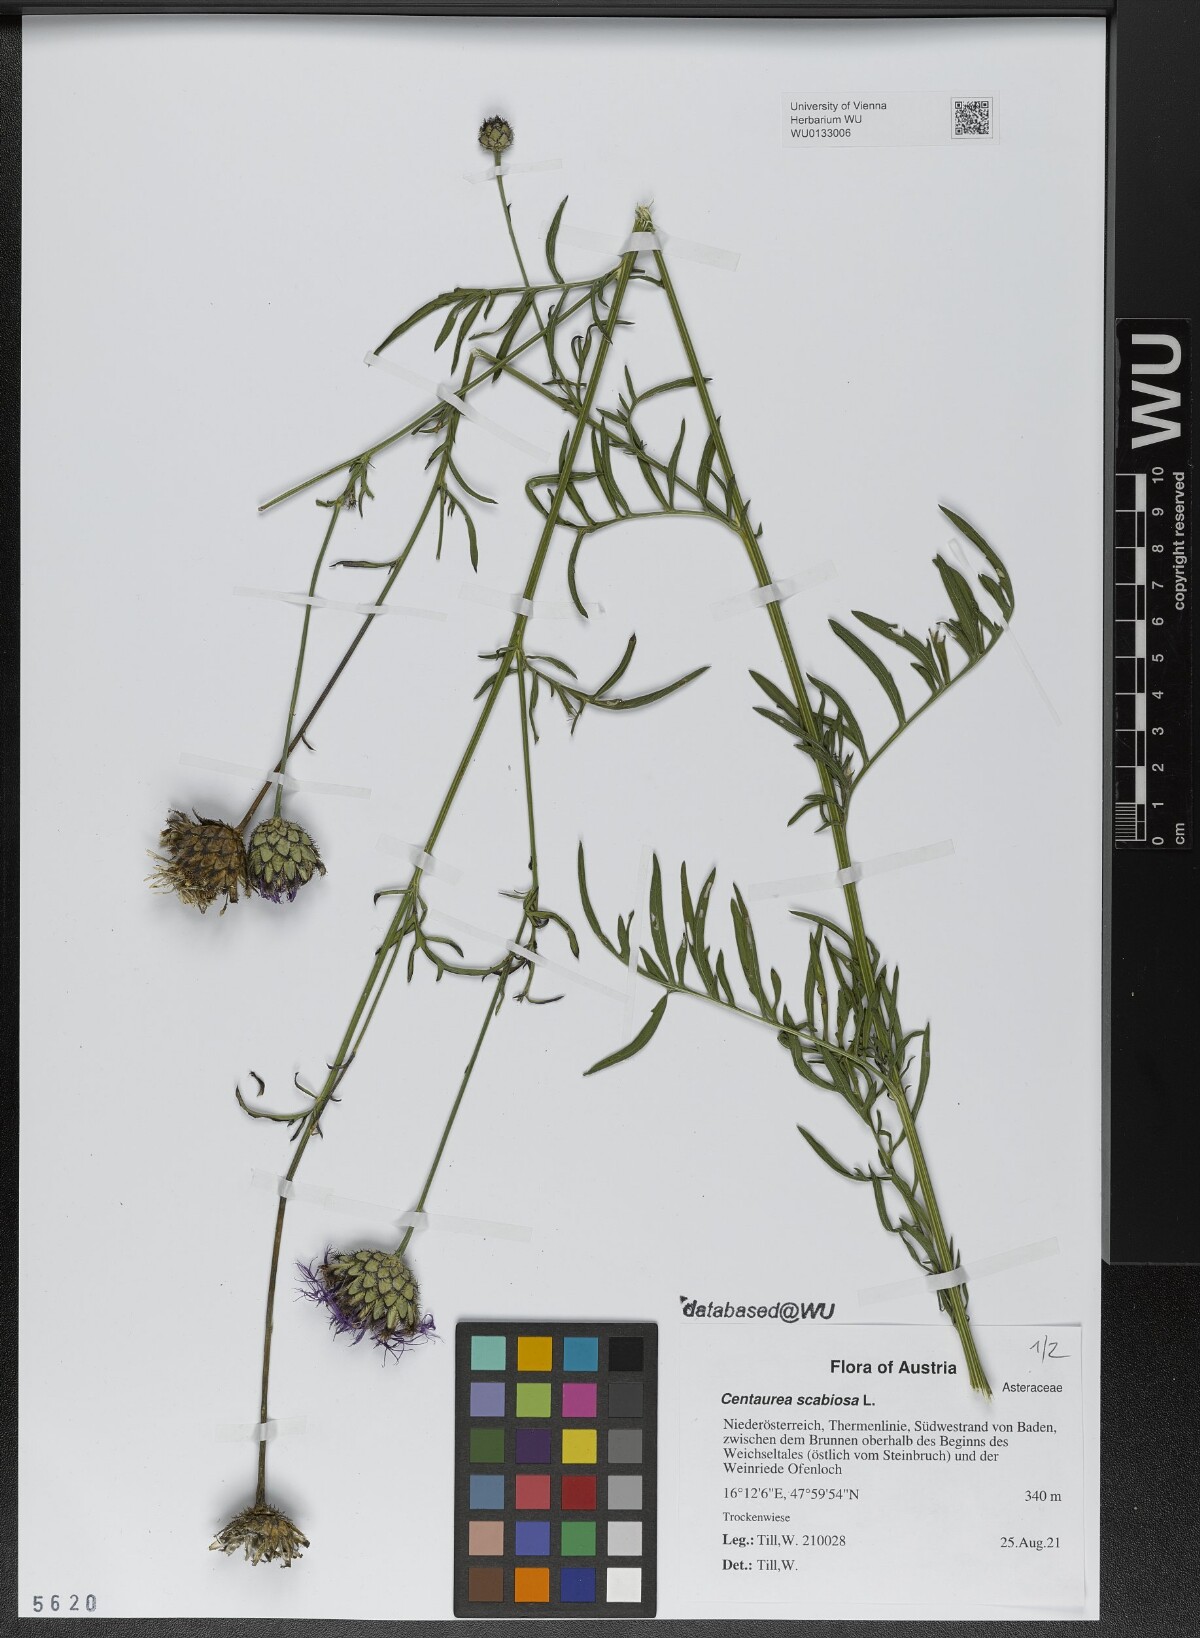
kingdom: Plantae
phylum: Tracheophyta
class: Magnoliopsida
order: Asterales
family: Asteraceae
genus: Centaurea
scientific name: Centaurea scabiosa
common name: Greater knapweed
